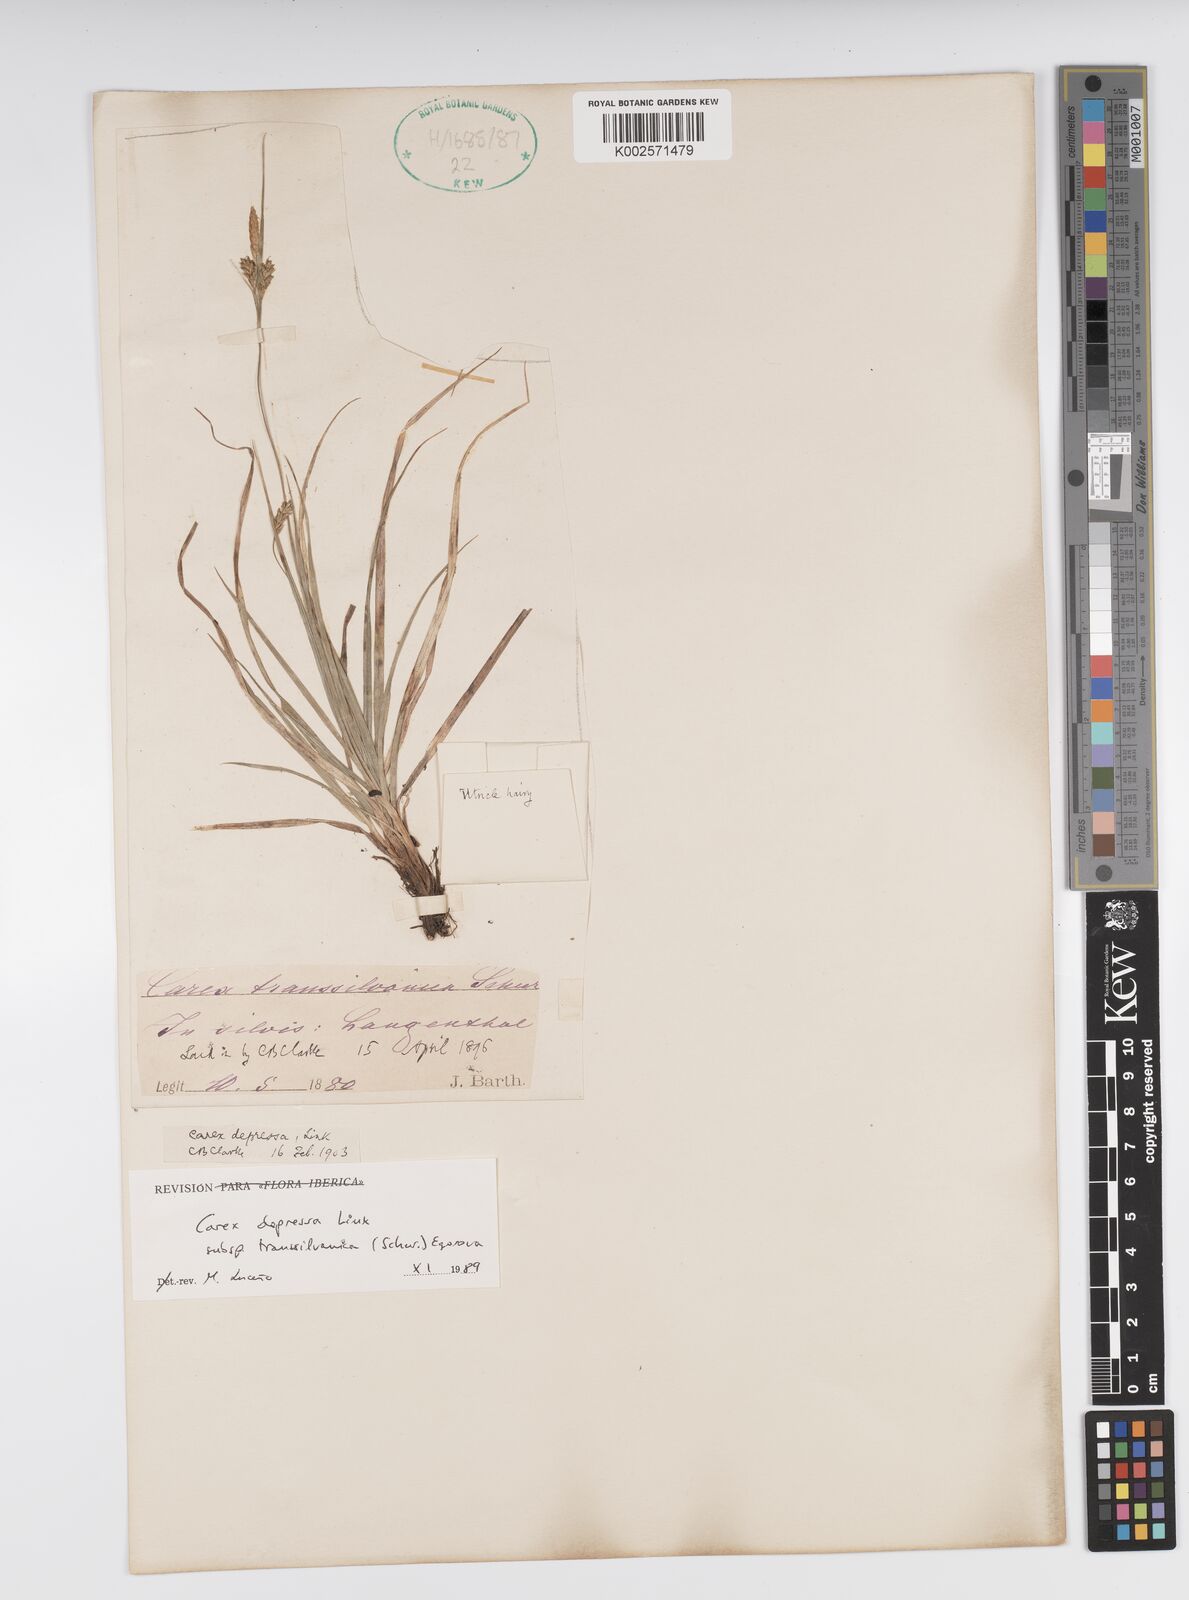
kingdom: Plantae
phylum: Tracheophyta
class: Liliopsida
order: Poales
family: Cyperaceae
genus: Carex
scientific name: Carex depressa
